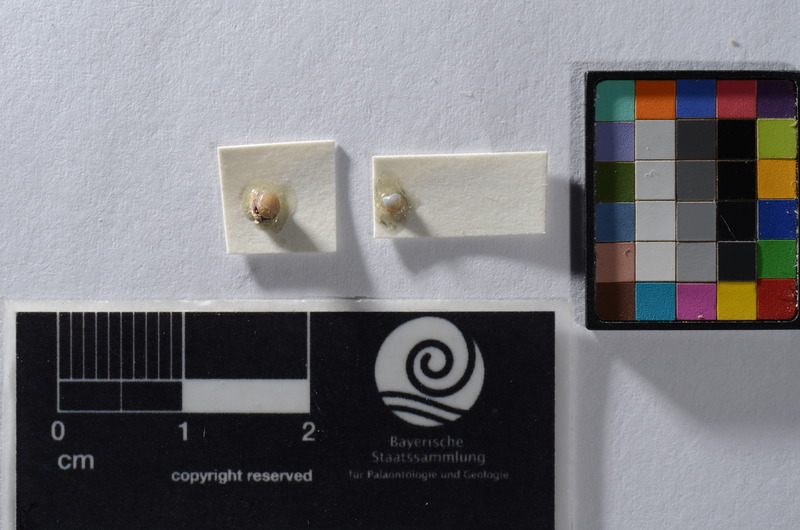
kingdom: Animalia
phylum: Chordata
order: Lepisosteiformes
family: Lepidotidae
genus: Lepidotes
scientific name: Lepidotes
